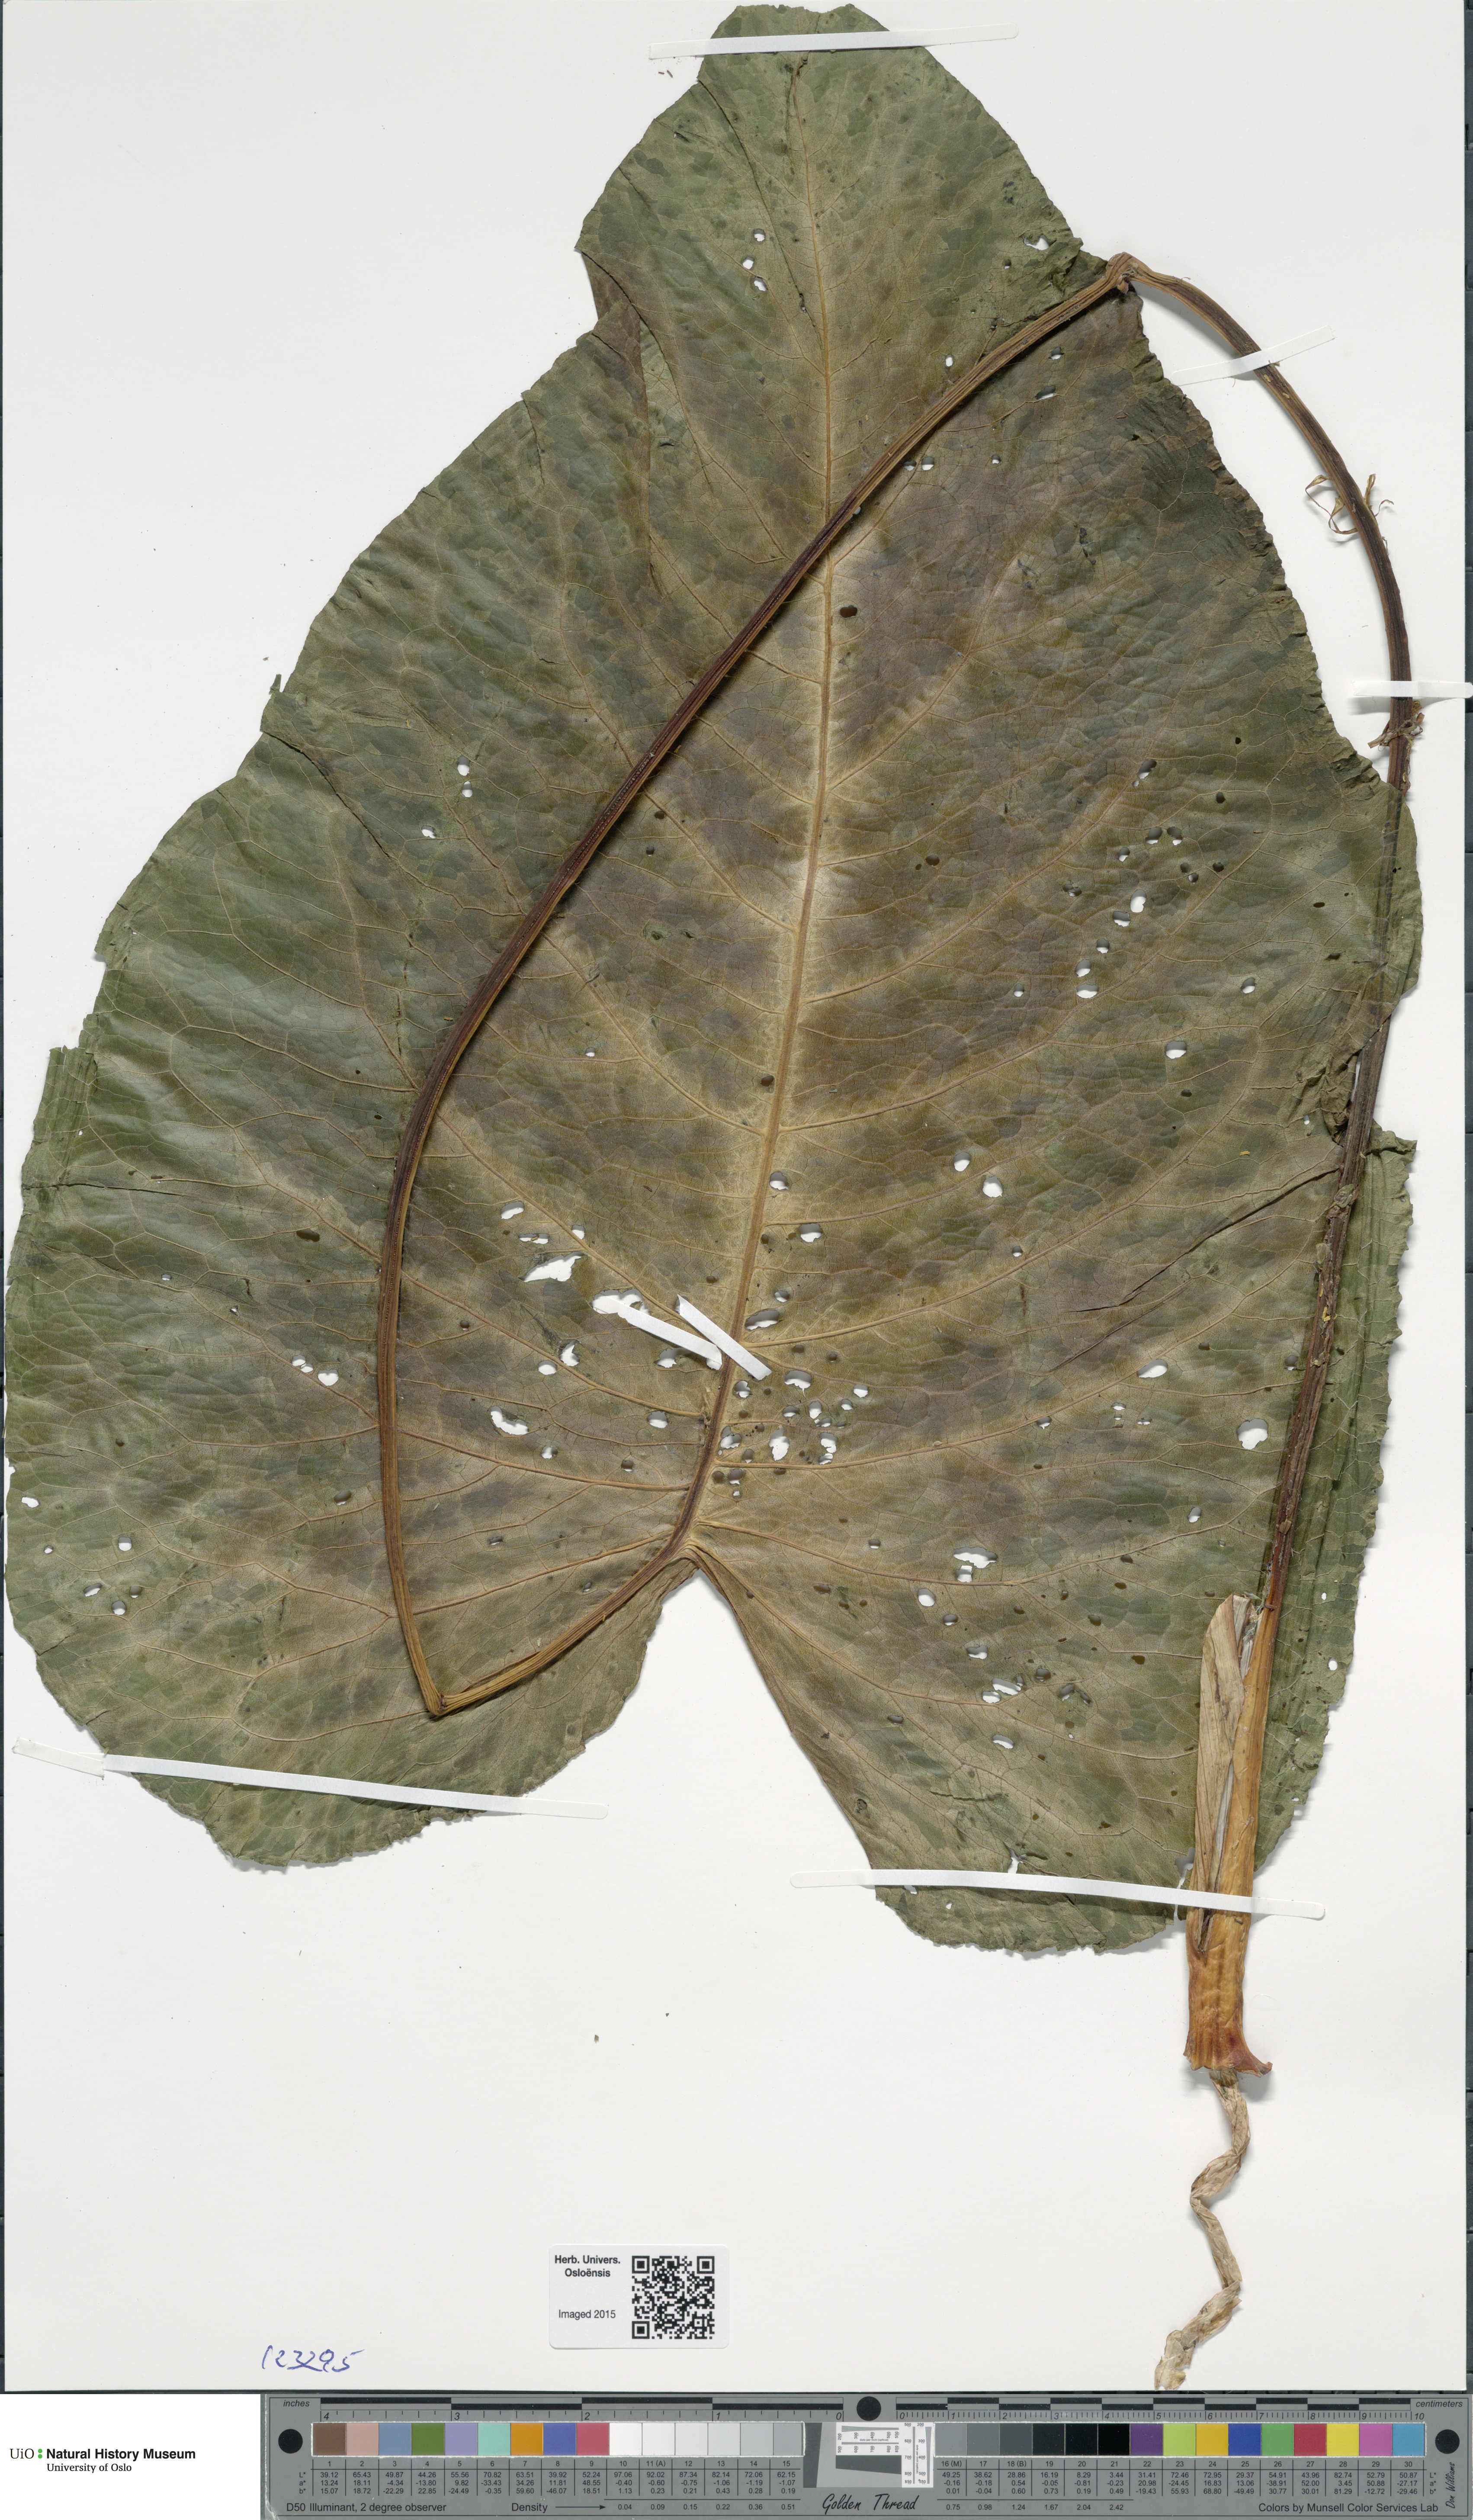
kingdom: Plantae
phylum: Tracheophyta
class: Magnoliopsida
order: Caryophyllales
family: Polygonaceae
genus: Rumex
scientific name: Rumex alpinus
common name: Alpine dock
